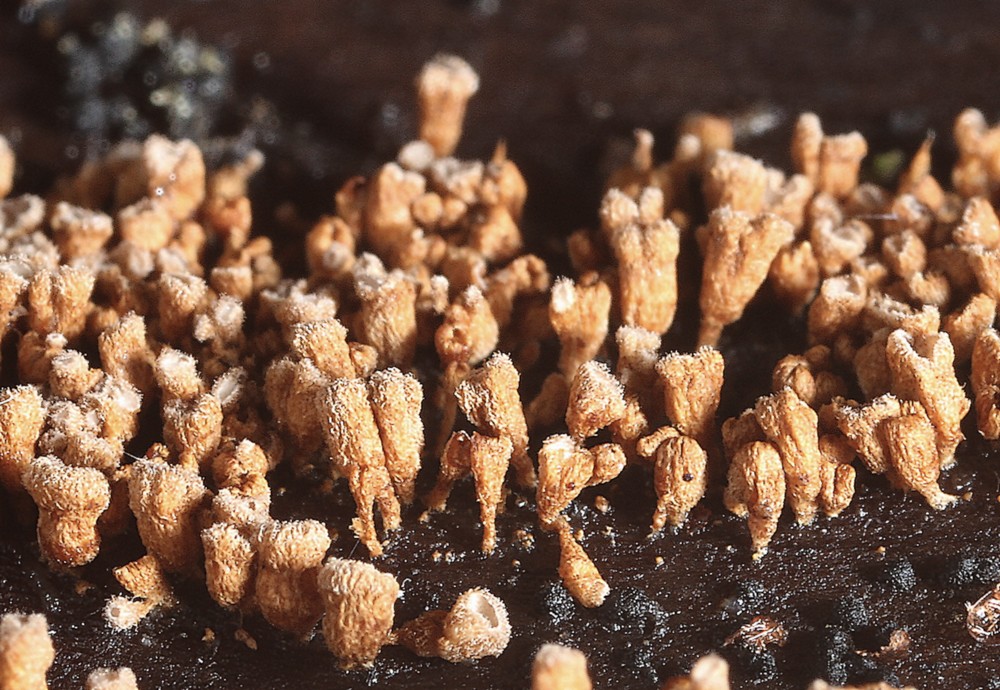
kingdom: Fungi
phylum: Basidiomycota
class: Agaricomycetes
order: Agaricales
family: Niaceae
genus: Merismodes
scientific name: Merismodes anomala
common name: almindelig læderskål
